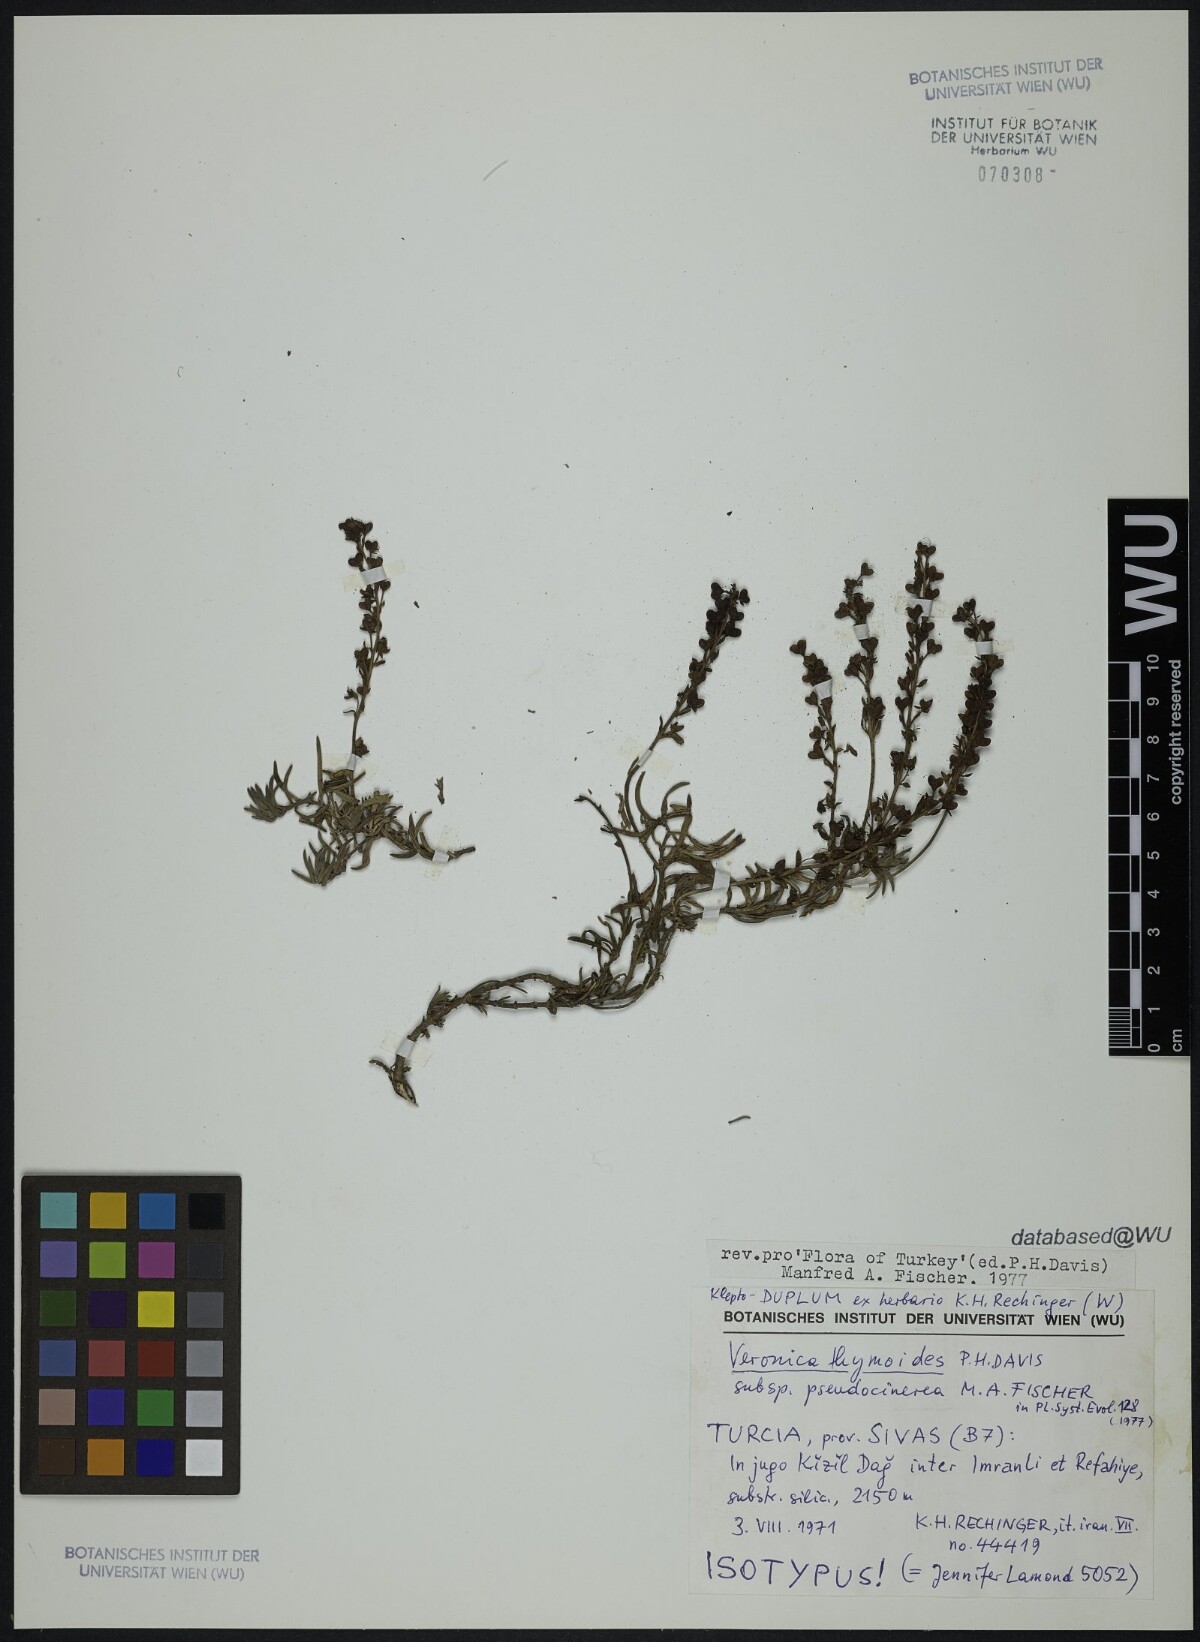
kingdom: Plantae
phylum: Tracheophyta
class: Magnoliopsida
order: Lamiales
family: Plantaginaceae
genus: Veronica
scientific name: Veronica thymoides
